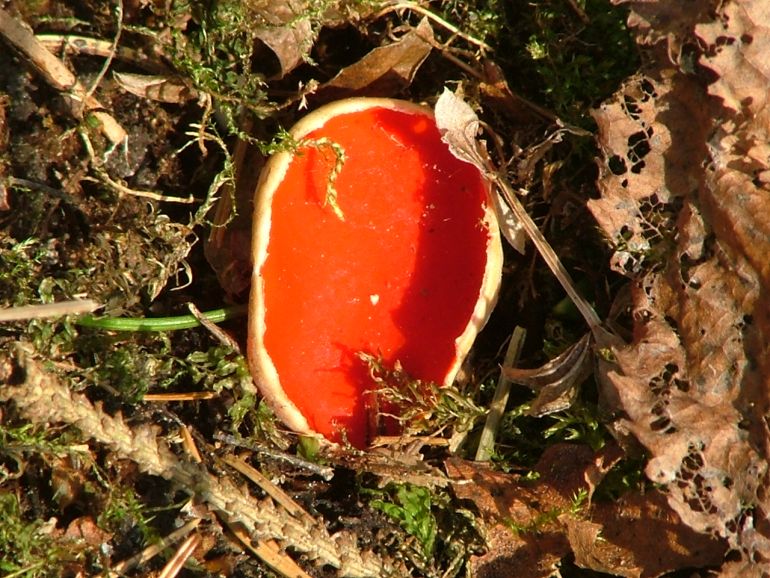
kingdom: Fungi
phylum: Ascomycota
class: Pezizomycetes
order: Pezizales
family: Sarcoscyphaceae
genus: Sarcoscypha
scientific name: Sarcoscypha austriaca
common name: krølhåret pragtbæger
